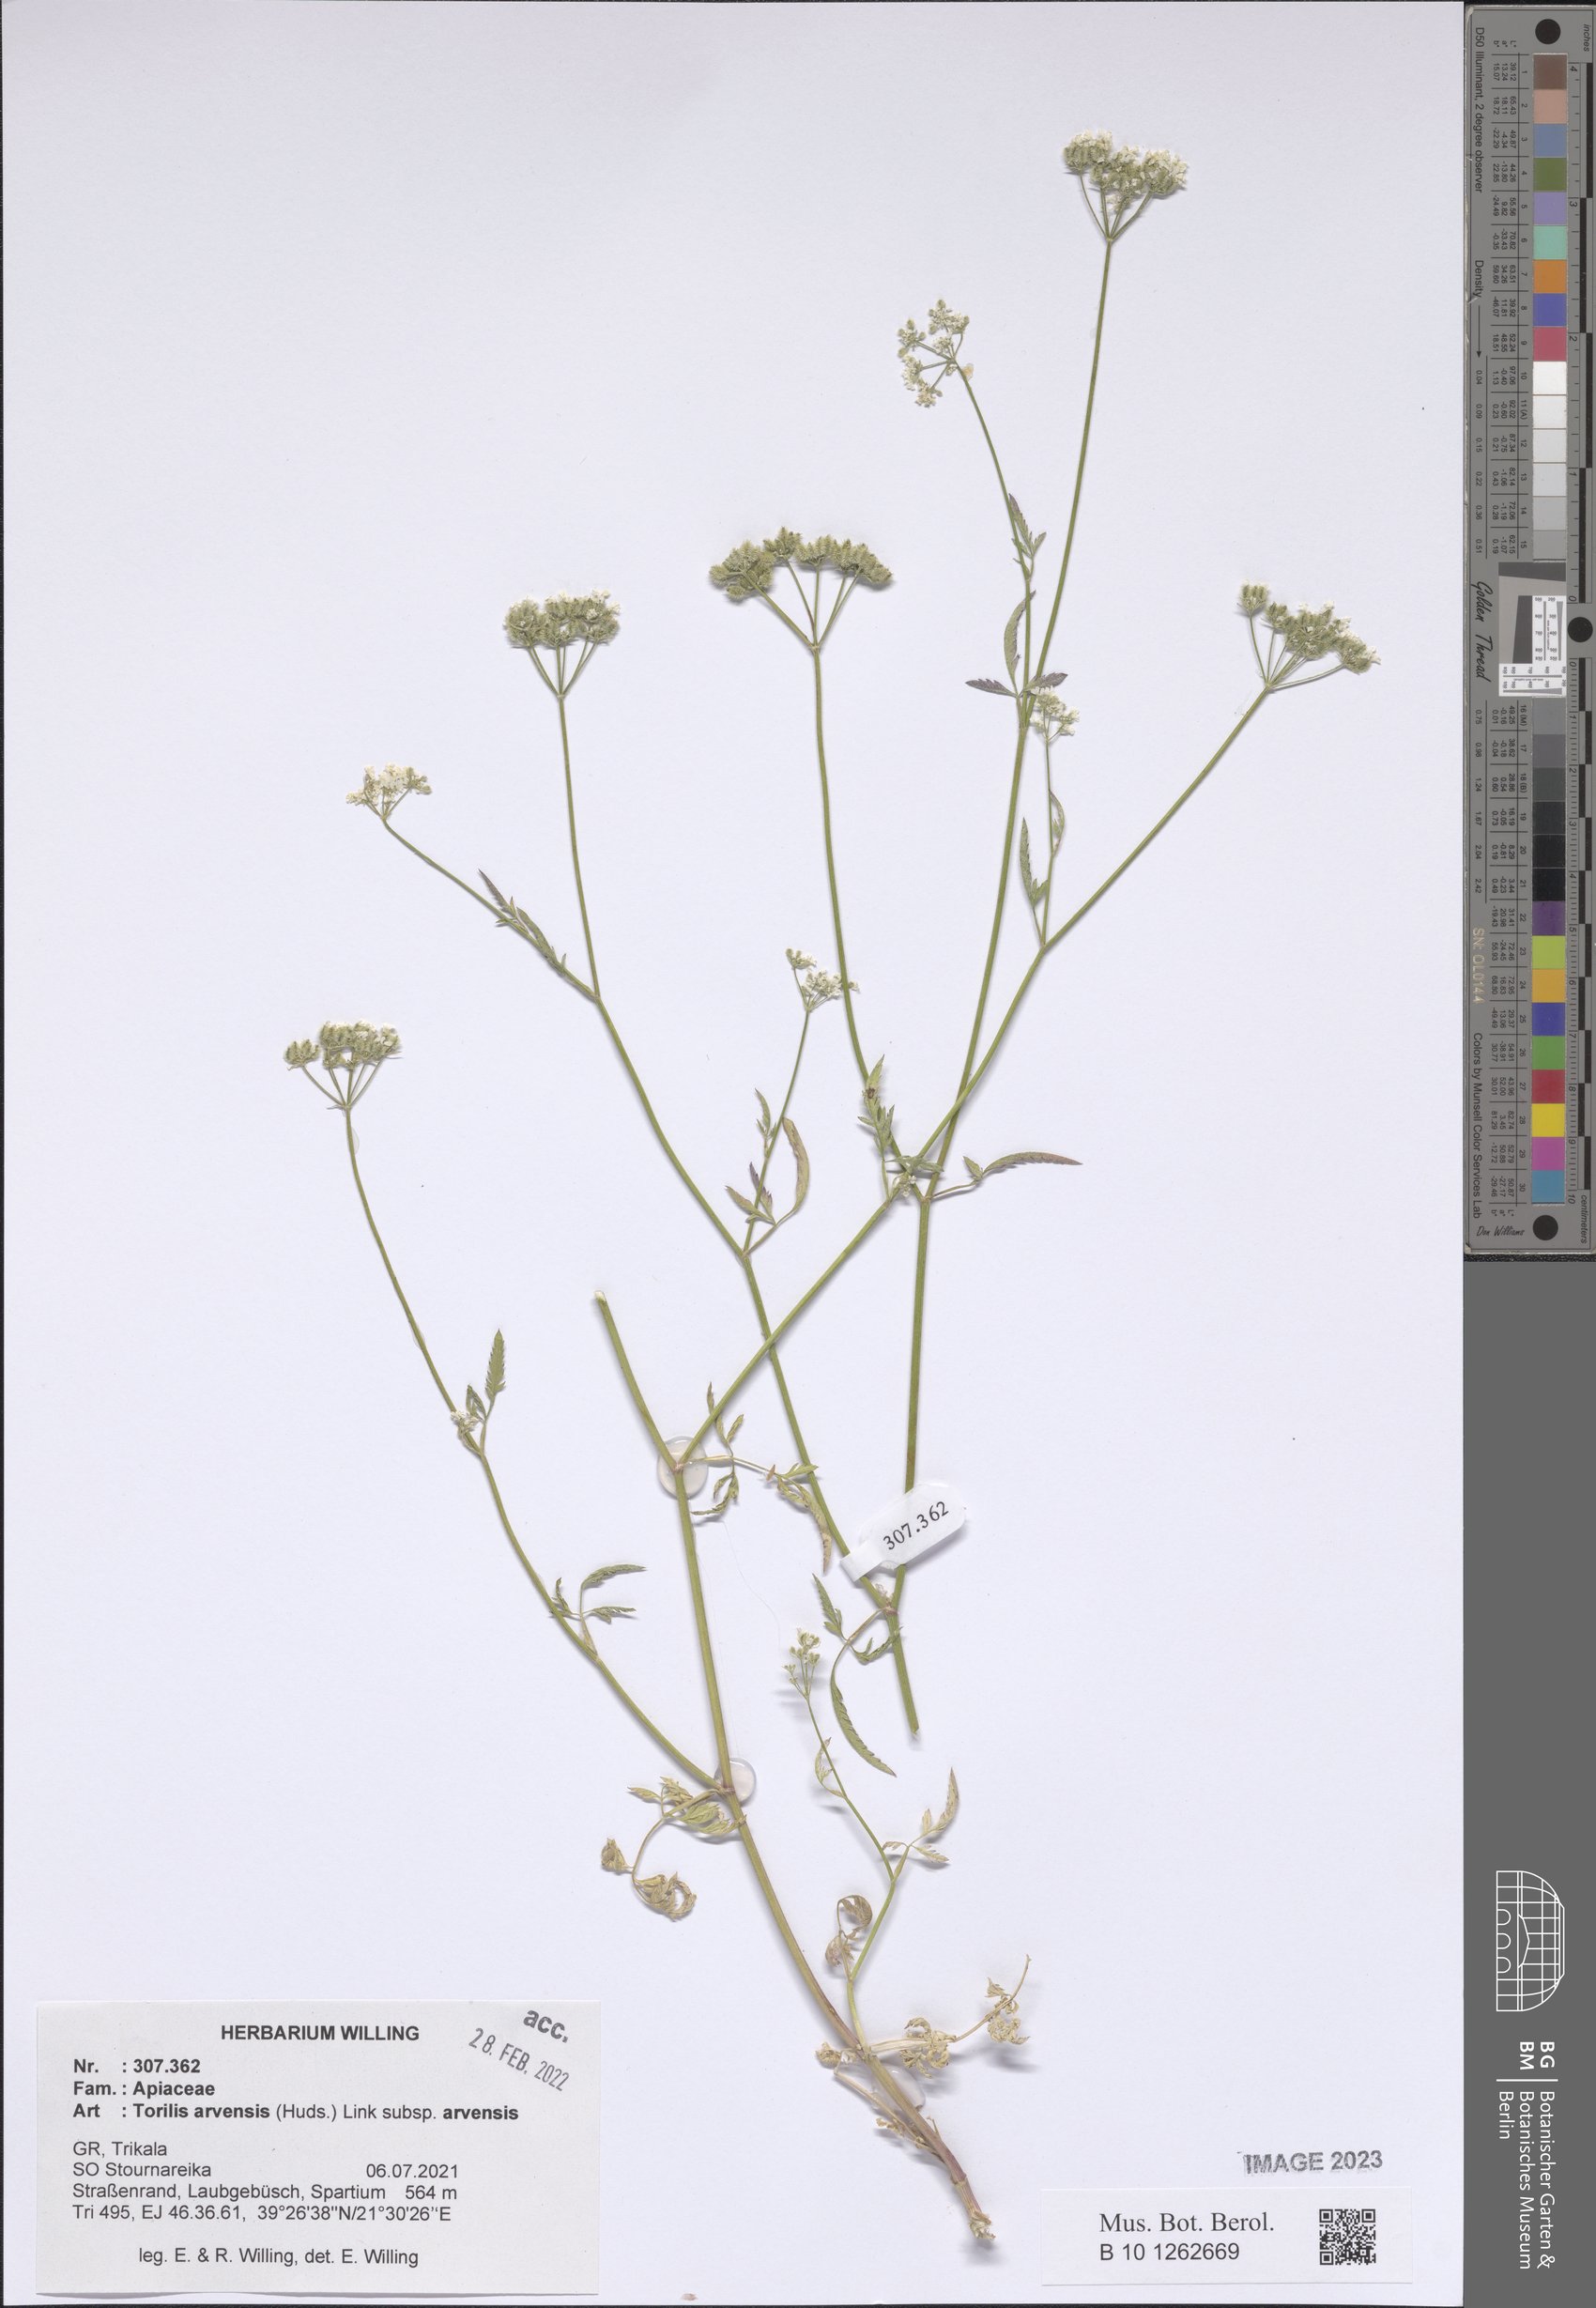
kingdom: Plantae
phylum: Tracheophyta
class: Magnoliopsida
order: Apiales
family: Apiaceae
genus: Torilis
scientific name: Torilis arvensis
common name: Spreading hedge-parsley
